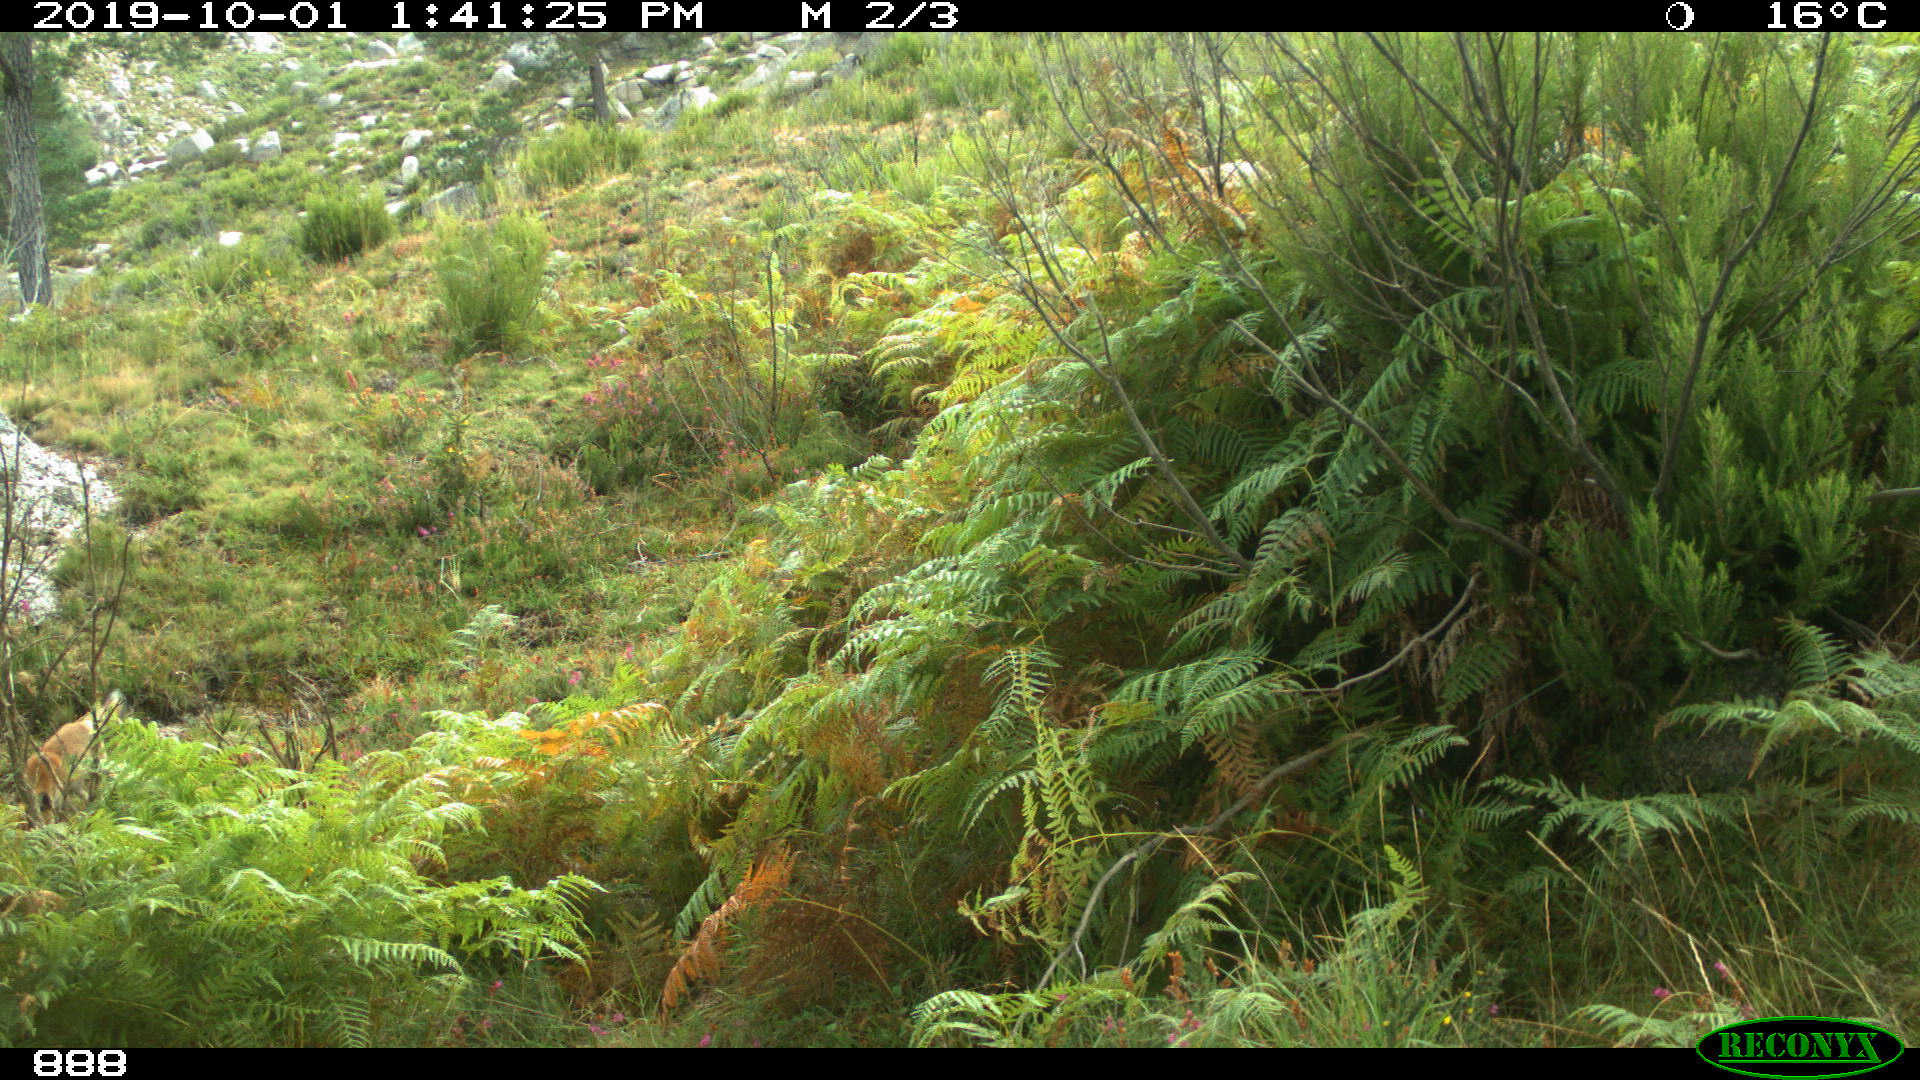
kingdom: Animalia
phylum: Chordata
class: Mammalia
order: Carnivora
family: Canidae
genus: Vulpes
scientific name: Vulpes vulpes
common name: Red fox
